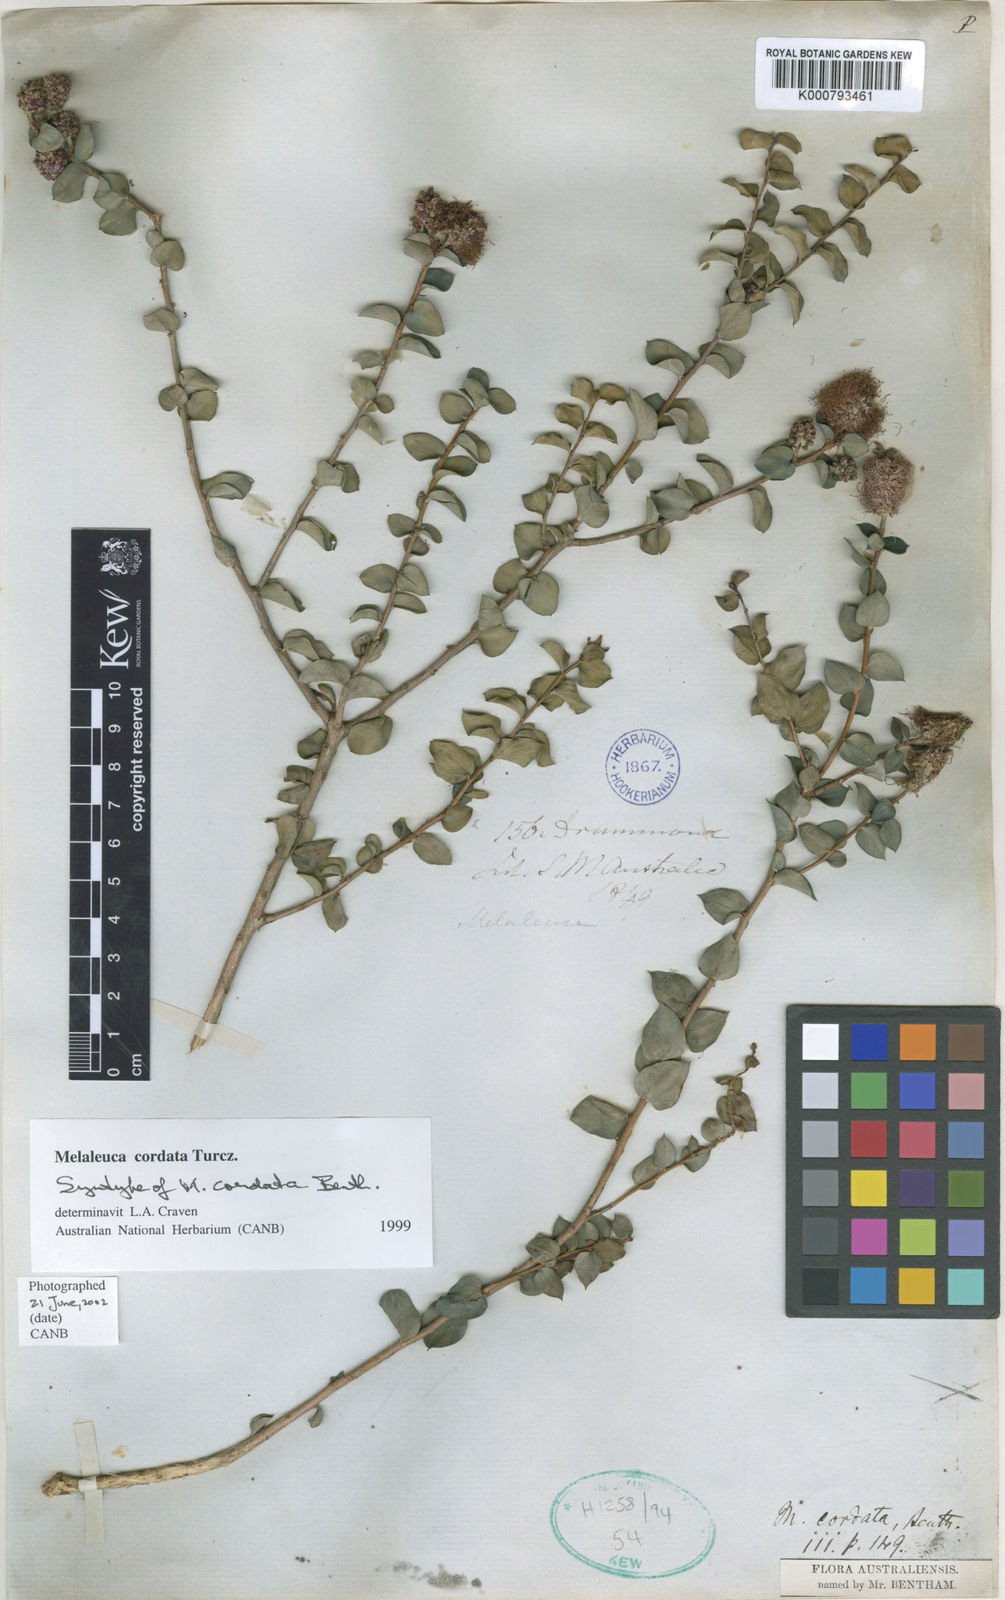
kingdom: Plantae
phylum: Tracheophyta
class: Magnoliopsida
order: Myrtales
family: Myrtaceae
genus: Melaleuca
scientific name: Melaleuca cordata
